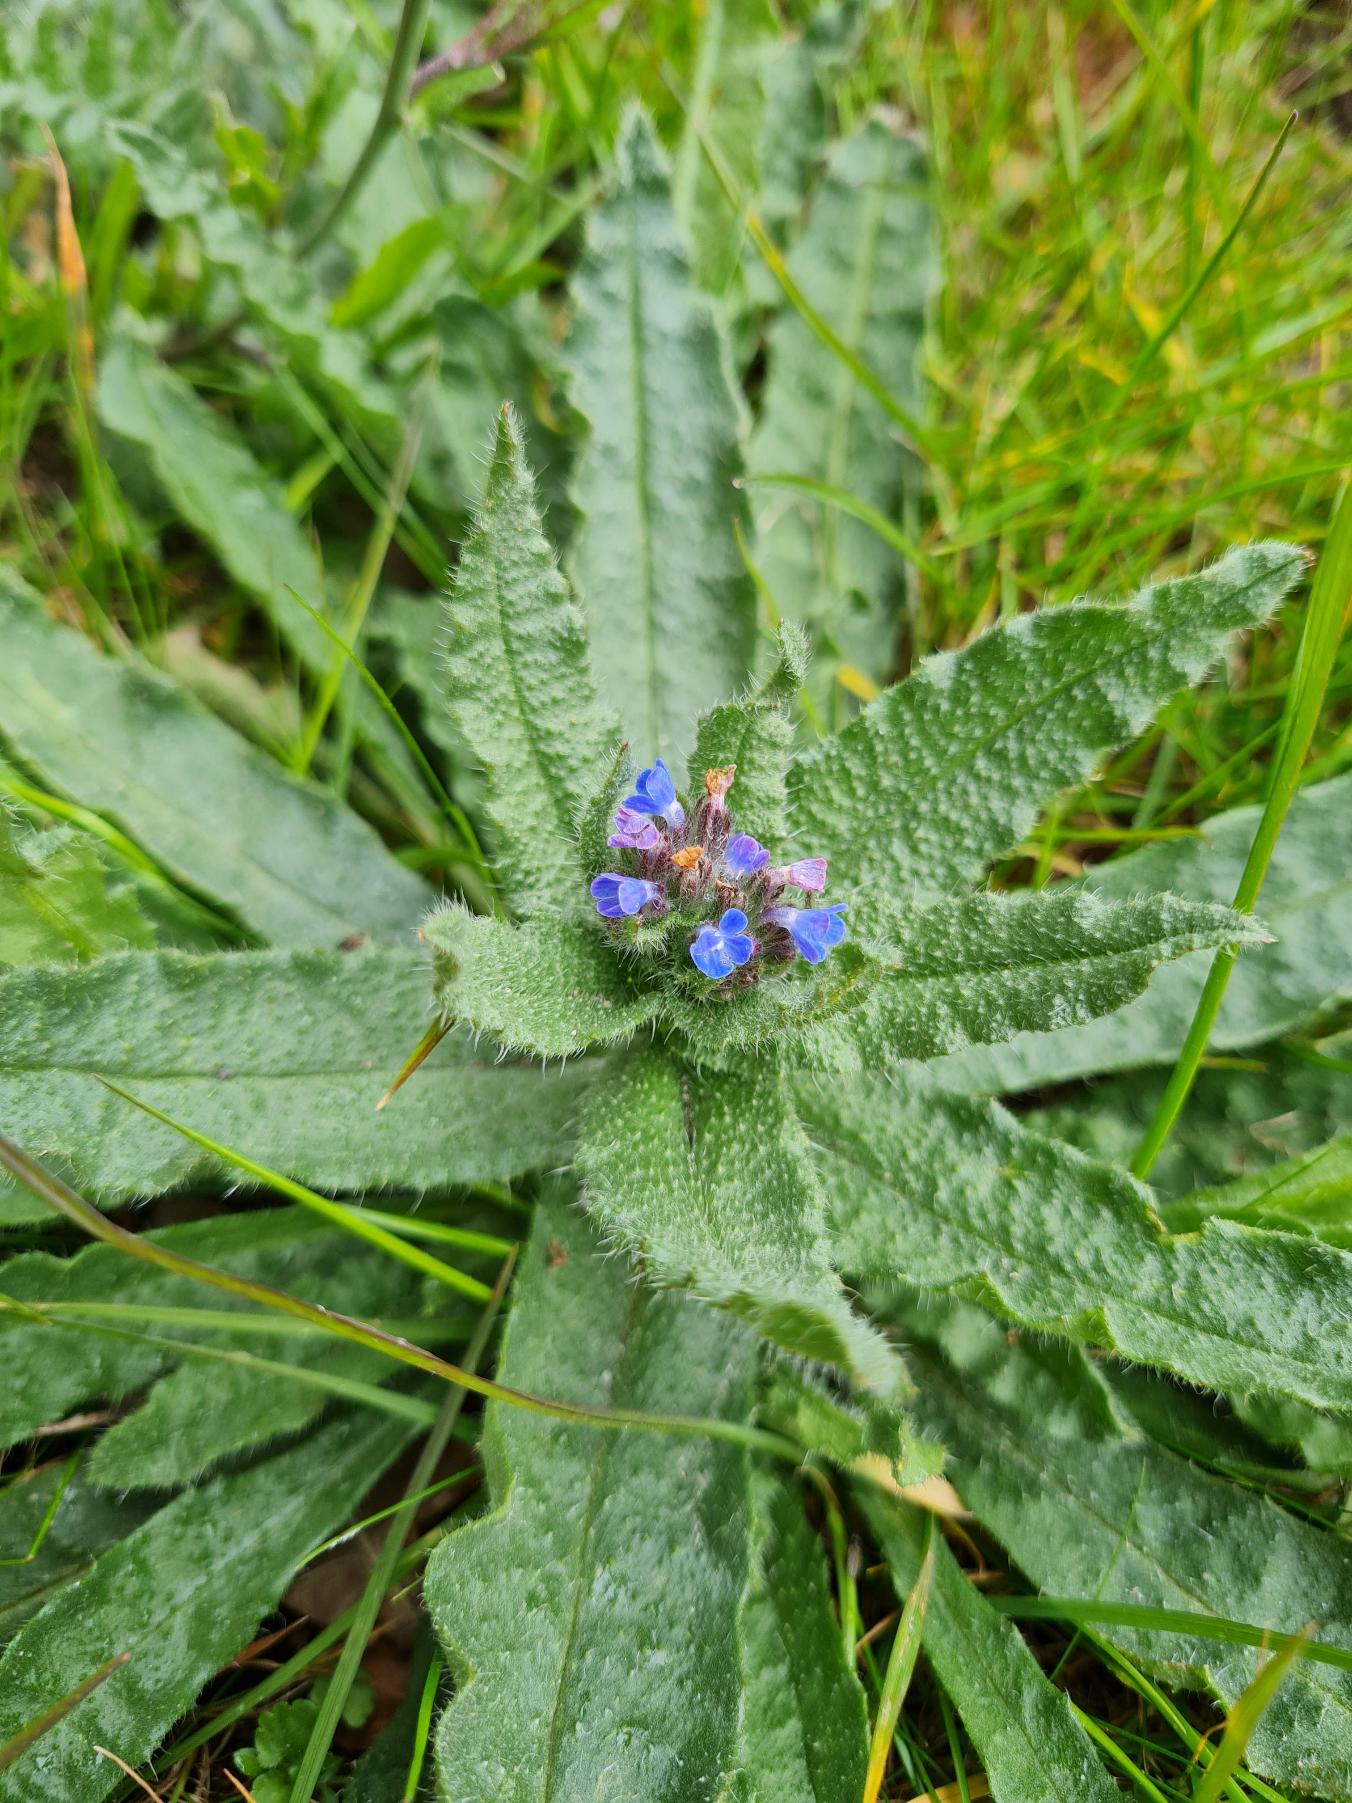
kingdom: Plantae
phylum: Tracheophyta
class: Magnoliopsida
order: Boraginales
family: Boraginaceae
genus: Lycopsis
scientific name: Lycopsis arvensis
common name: Krumhals
